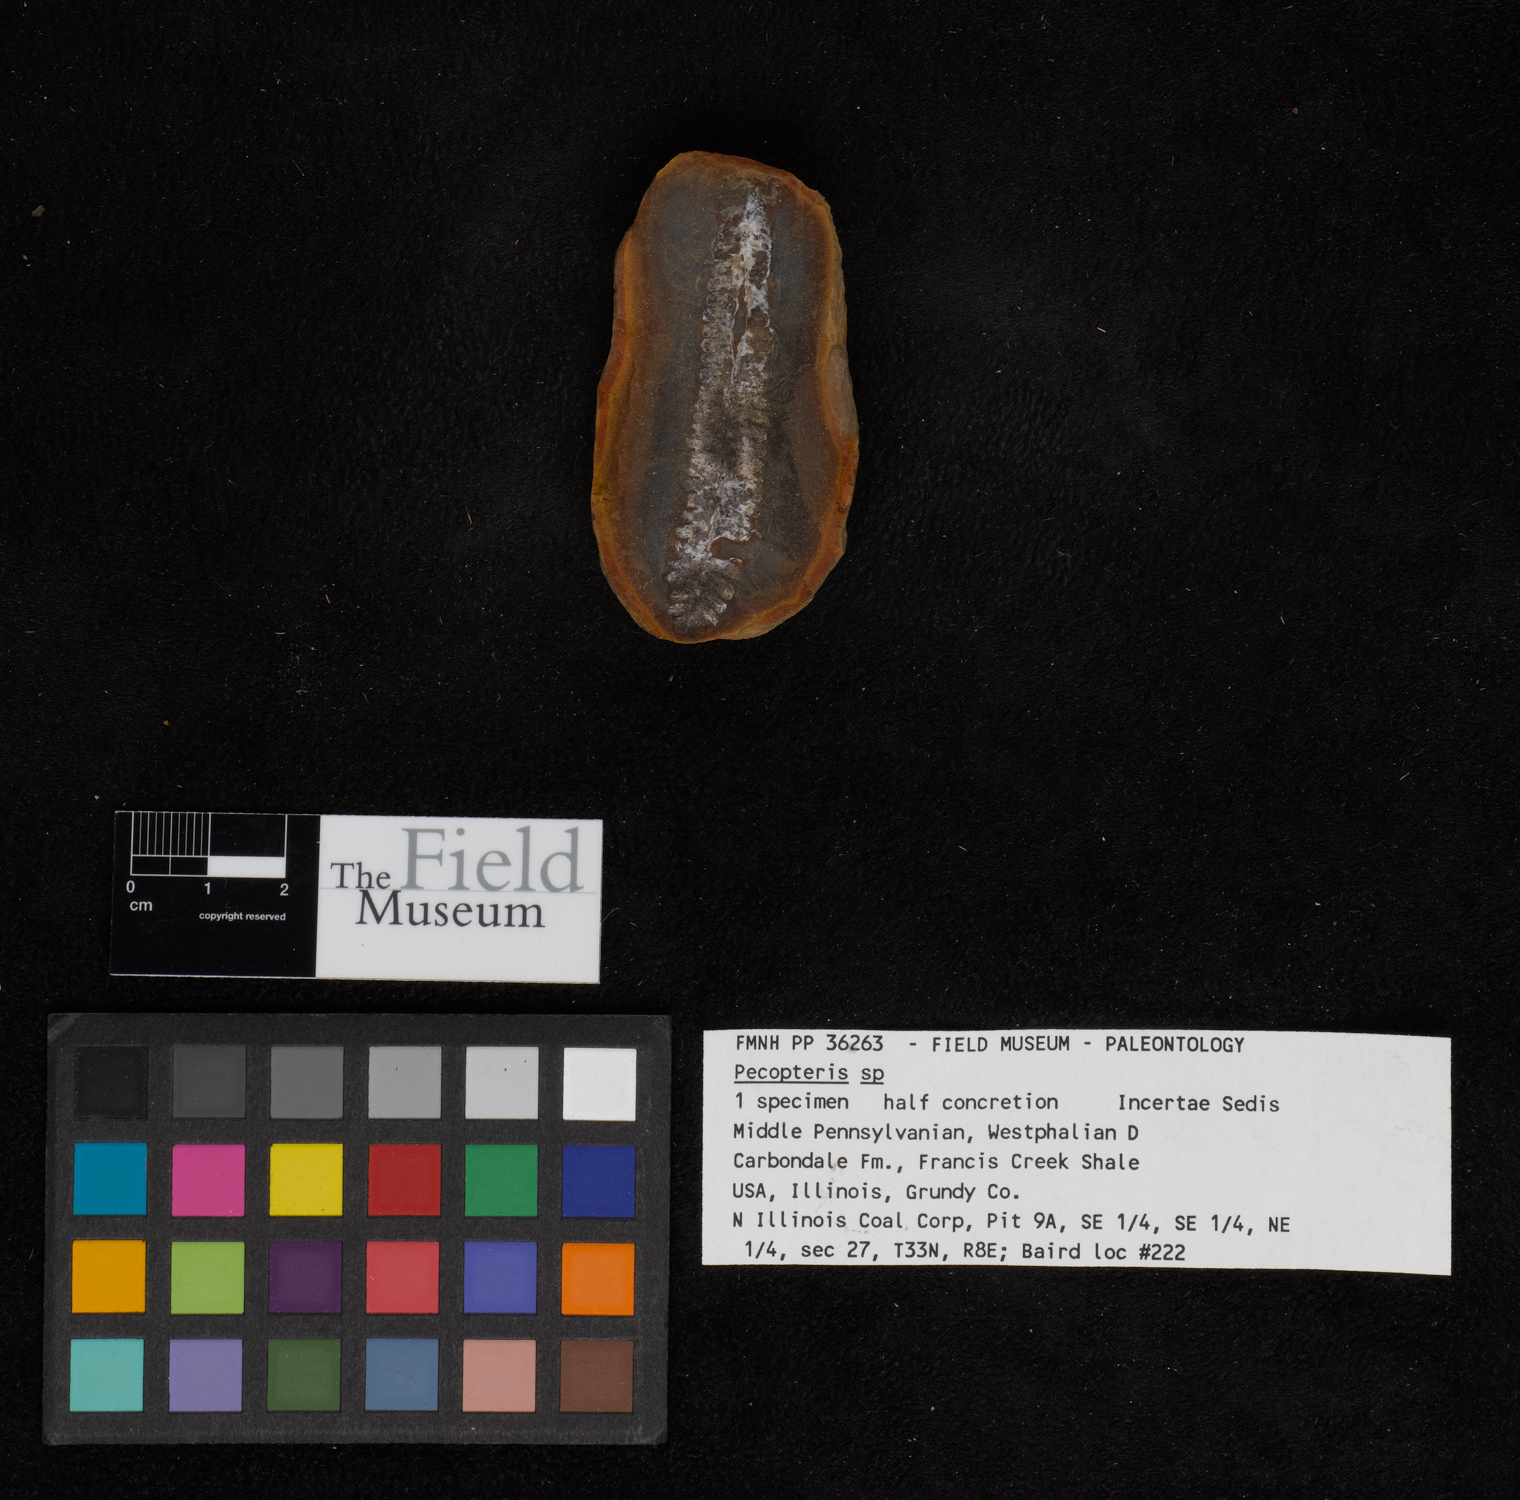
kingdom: Plantae
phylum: Tracheophyta
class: Polypodiopsida
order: Marattiales
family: Asterothecaceae
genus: Pecopteris
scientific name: Pecopteris
